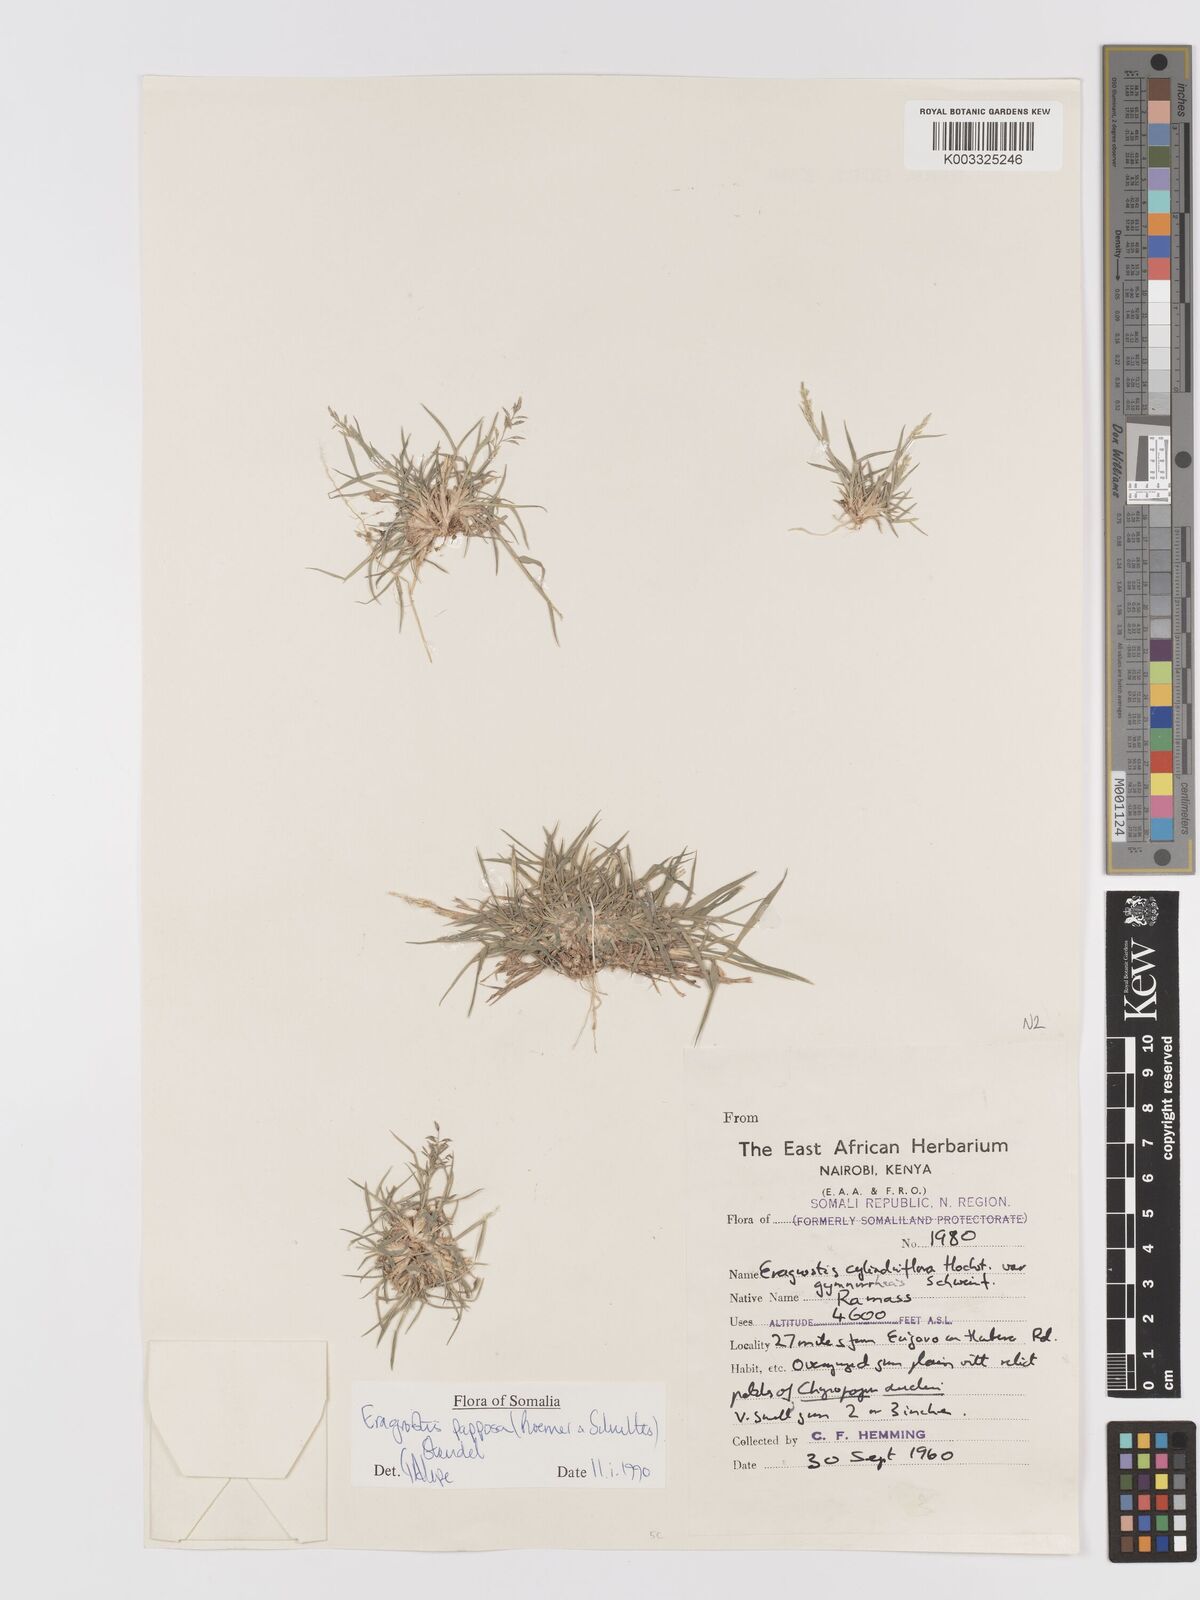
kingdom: Plantae
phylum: Tracheophyta
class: Liliopsida
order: Poales
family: Poaceae
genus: Eragrostis
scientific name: Eragrostis papposa
